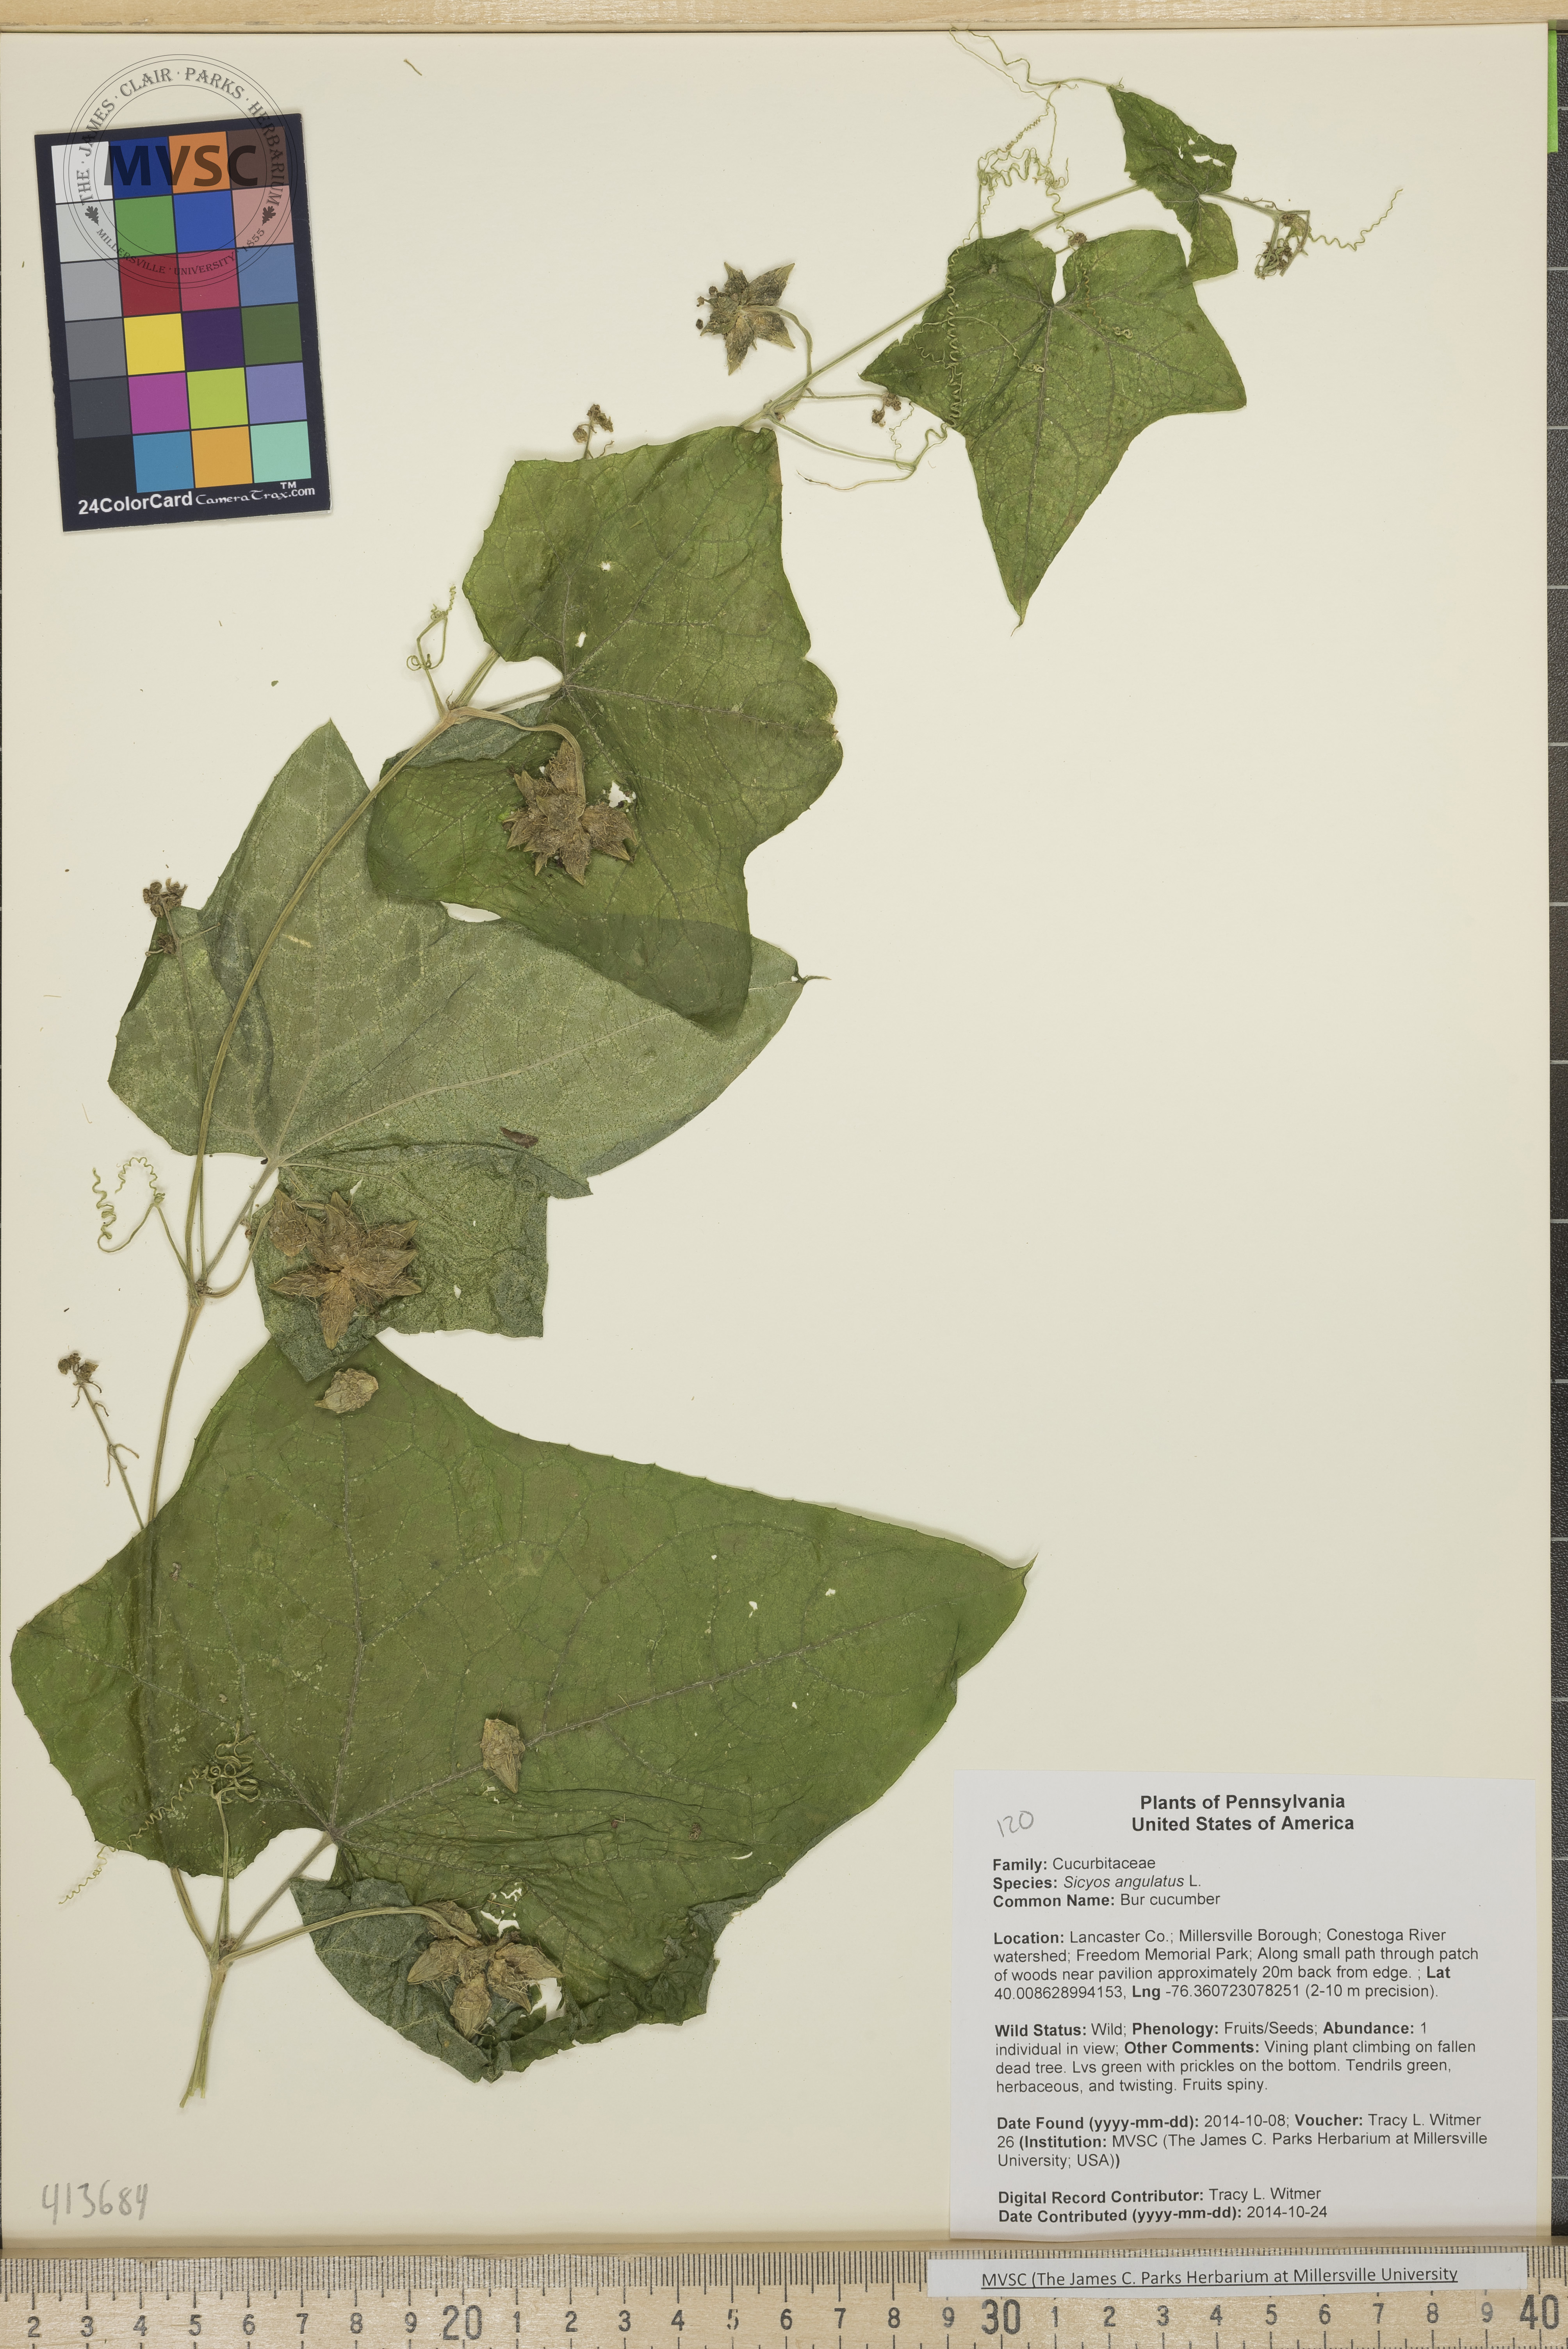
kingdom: Plantae
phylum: Tracheophyta
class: Magnoliopsida
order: Cucurbitales
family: Cucurbitaceae
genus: Sicyos
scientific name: Sicyos angulatus
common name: Bur cucumber
